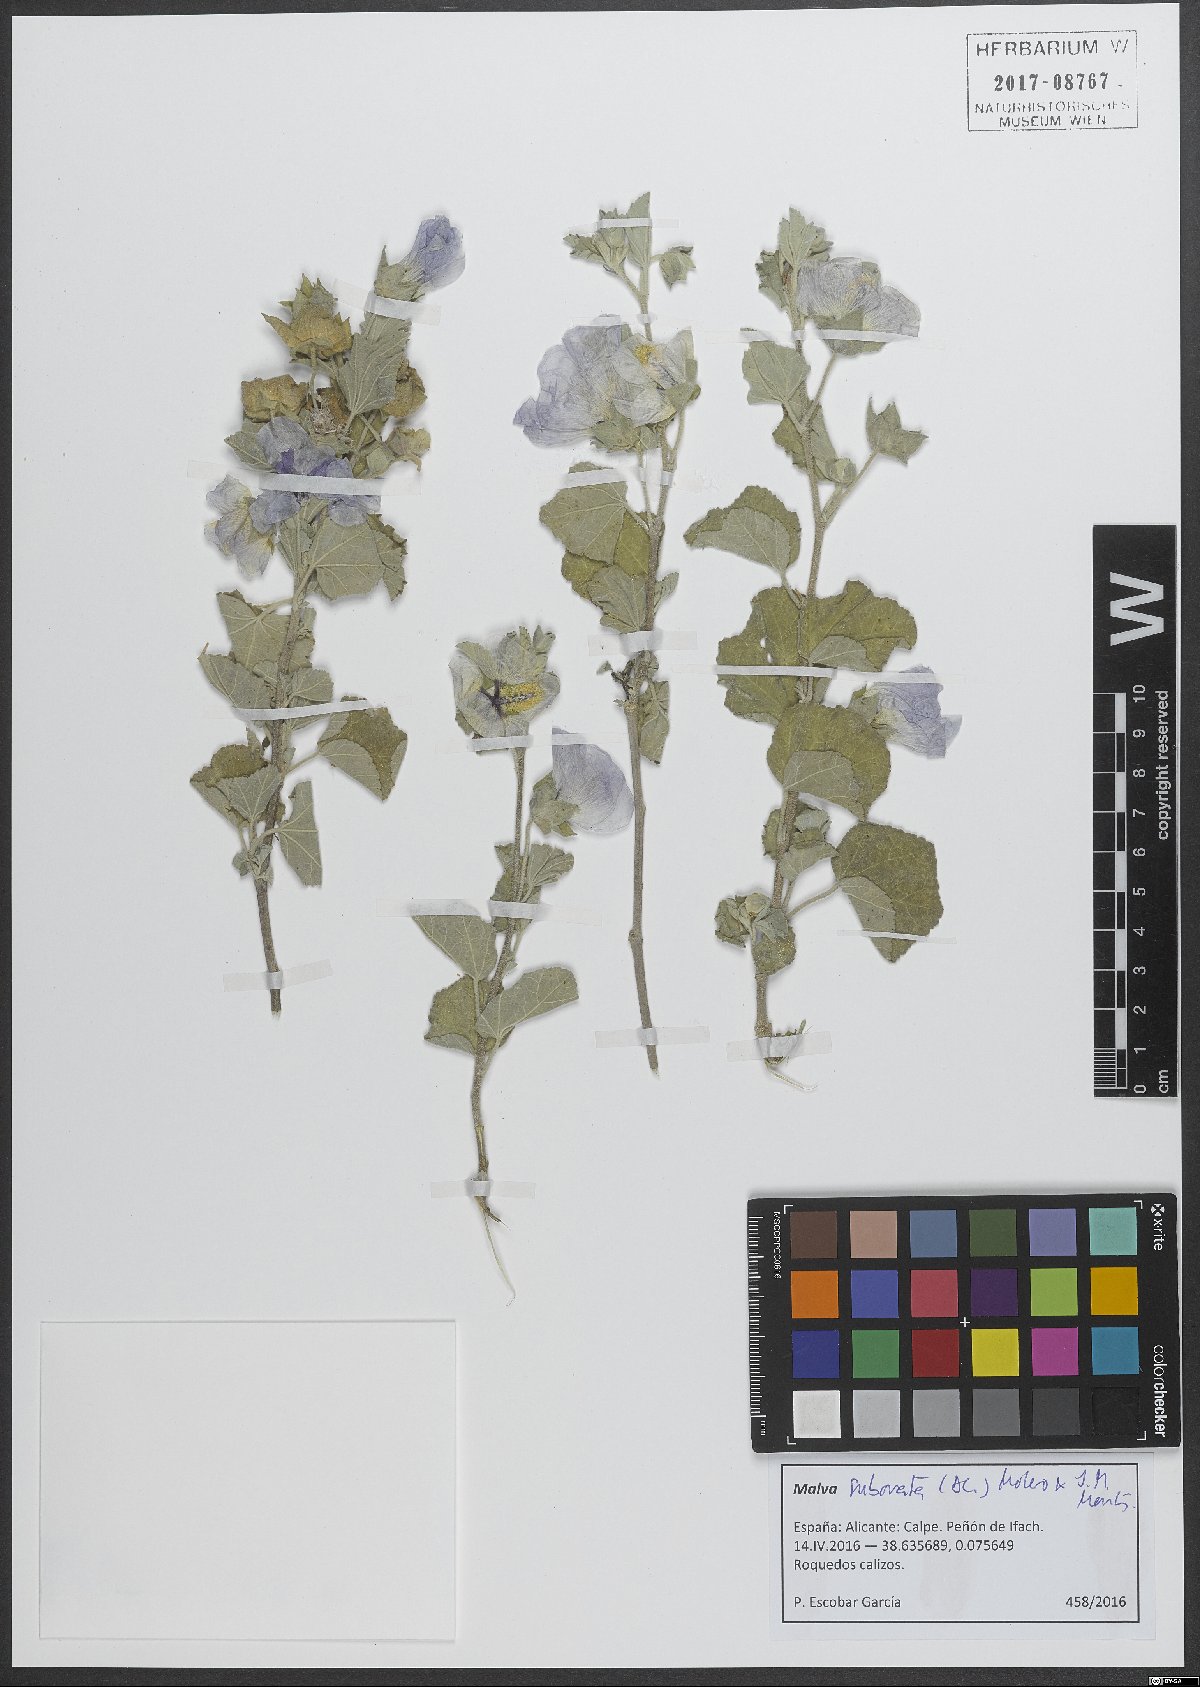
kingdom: Plantae
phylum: Tracheophyta
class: Magnoliopsida
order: Malvales
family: Malvaceae
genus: Malva
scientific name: Malva subovata
